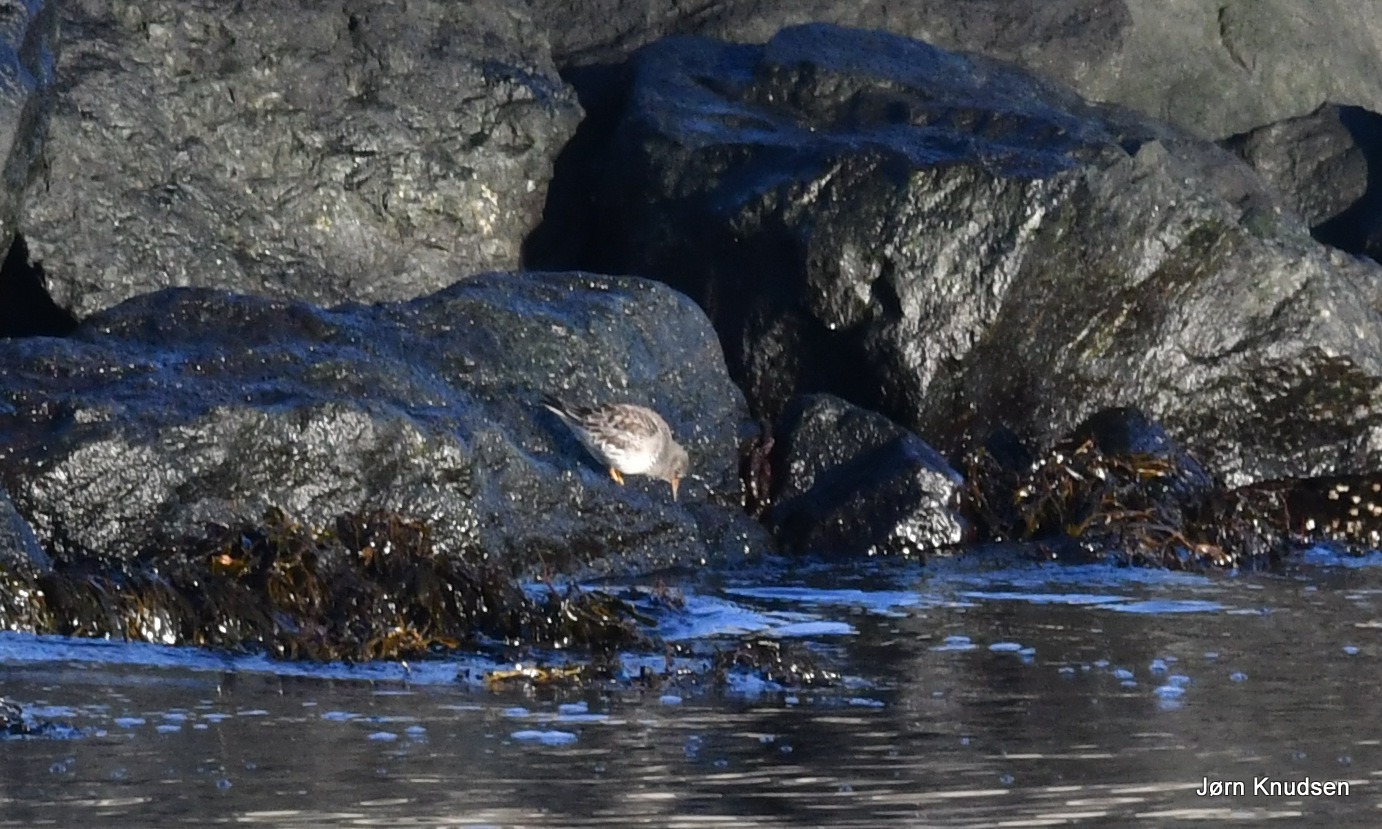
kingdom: Animalia
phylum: Chordata
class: Aves
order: Charadriiformes
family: Scolopacidae
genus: Calidris
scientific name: Calidris maritima
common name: Sortgrå ryle
